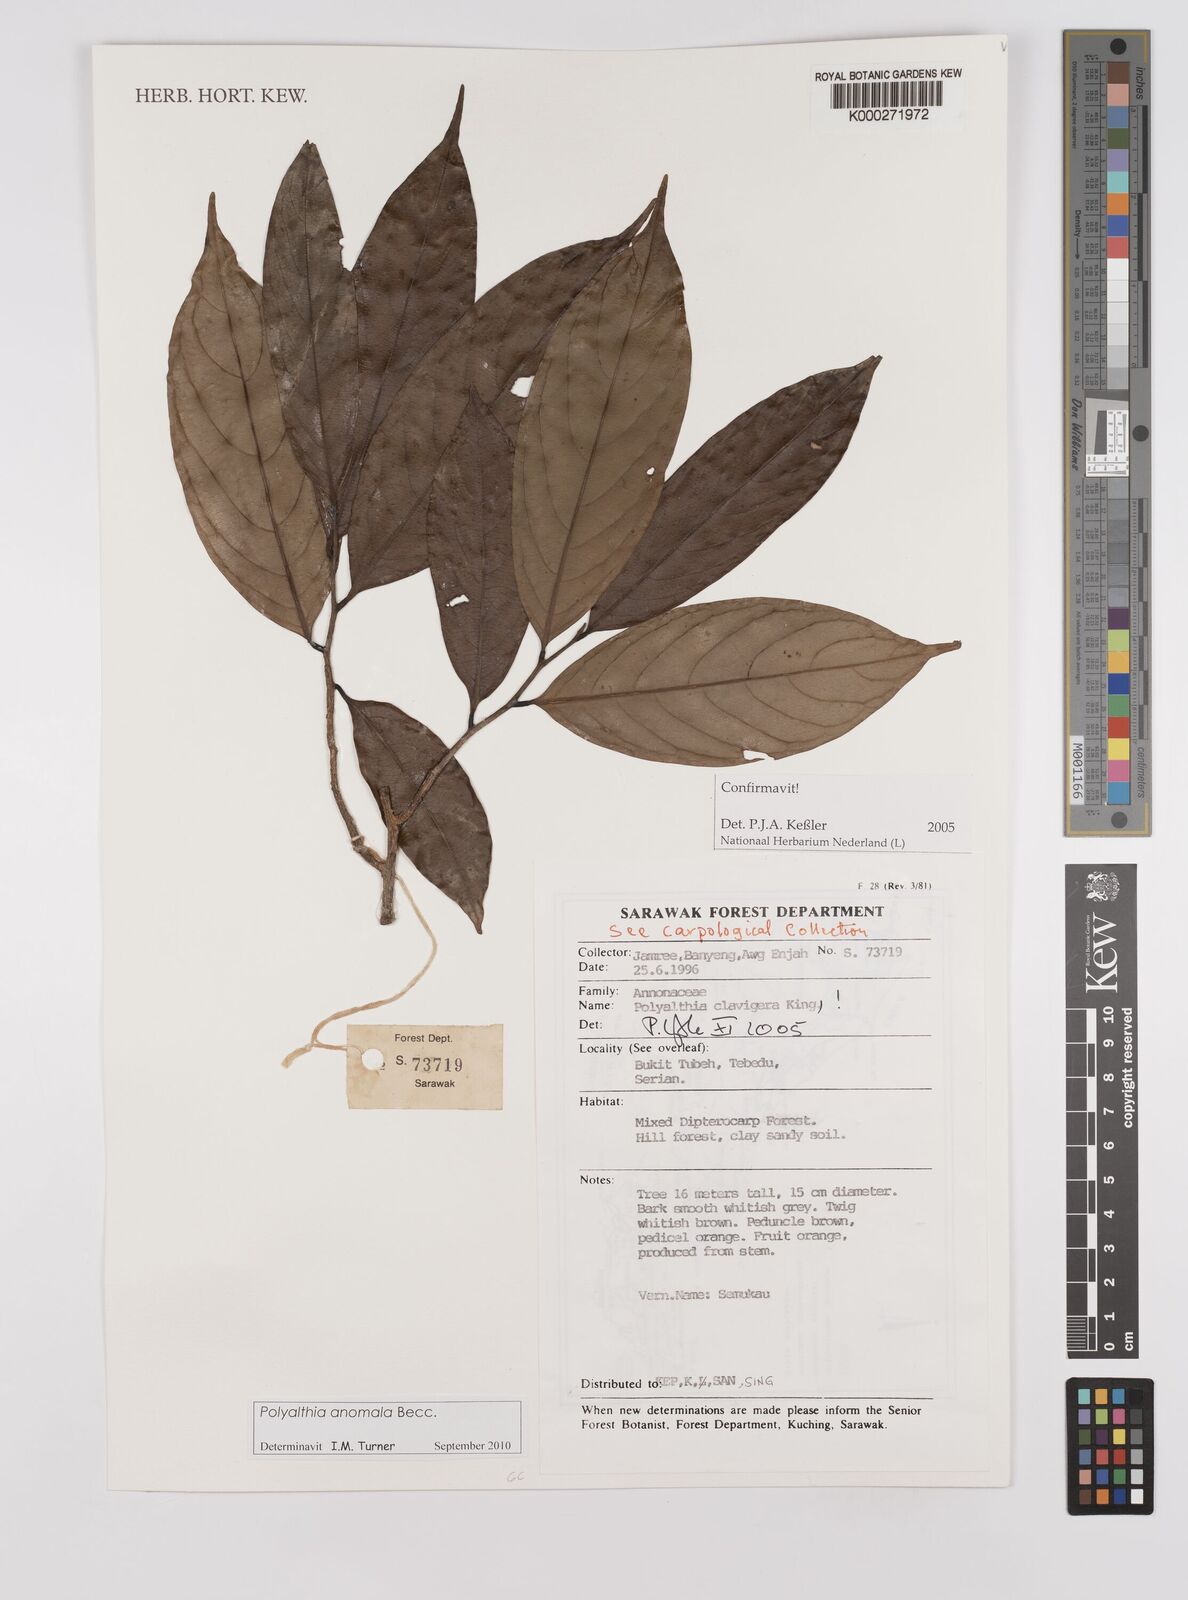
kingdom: Plantae
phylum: Tracheophyta
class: Magnoliopsida
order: Magnoliales
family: Annonaceae
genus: Polyalthia
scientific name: Polyalthia anomala
